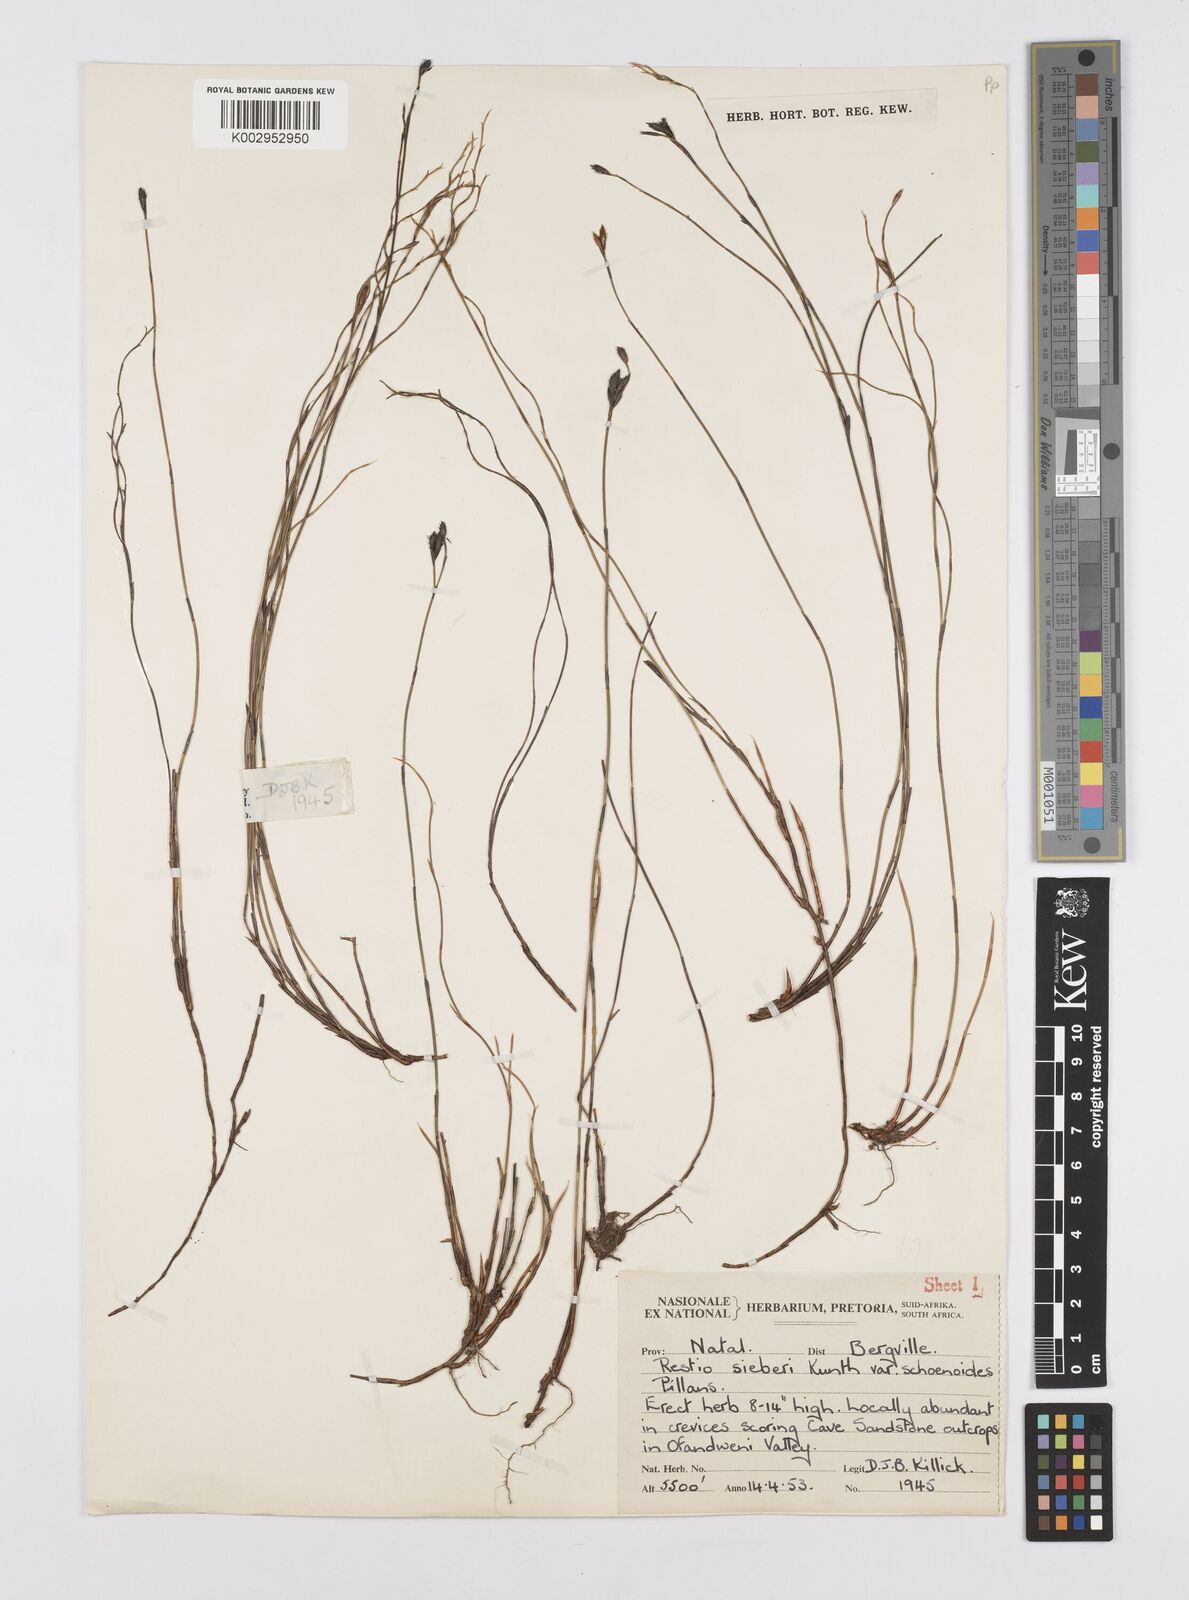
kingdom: Plantae
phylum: Tracheophyta
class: Liliopsida
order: Poales
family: Restionaceae
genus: Restio
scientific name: Restio schoenoides
